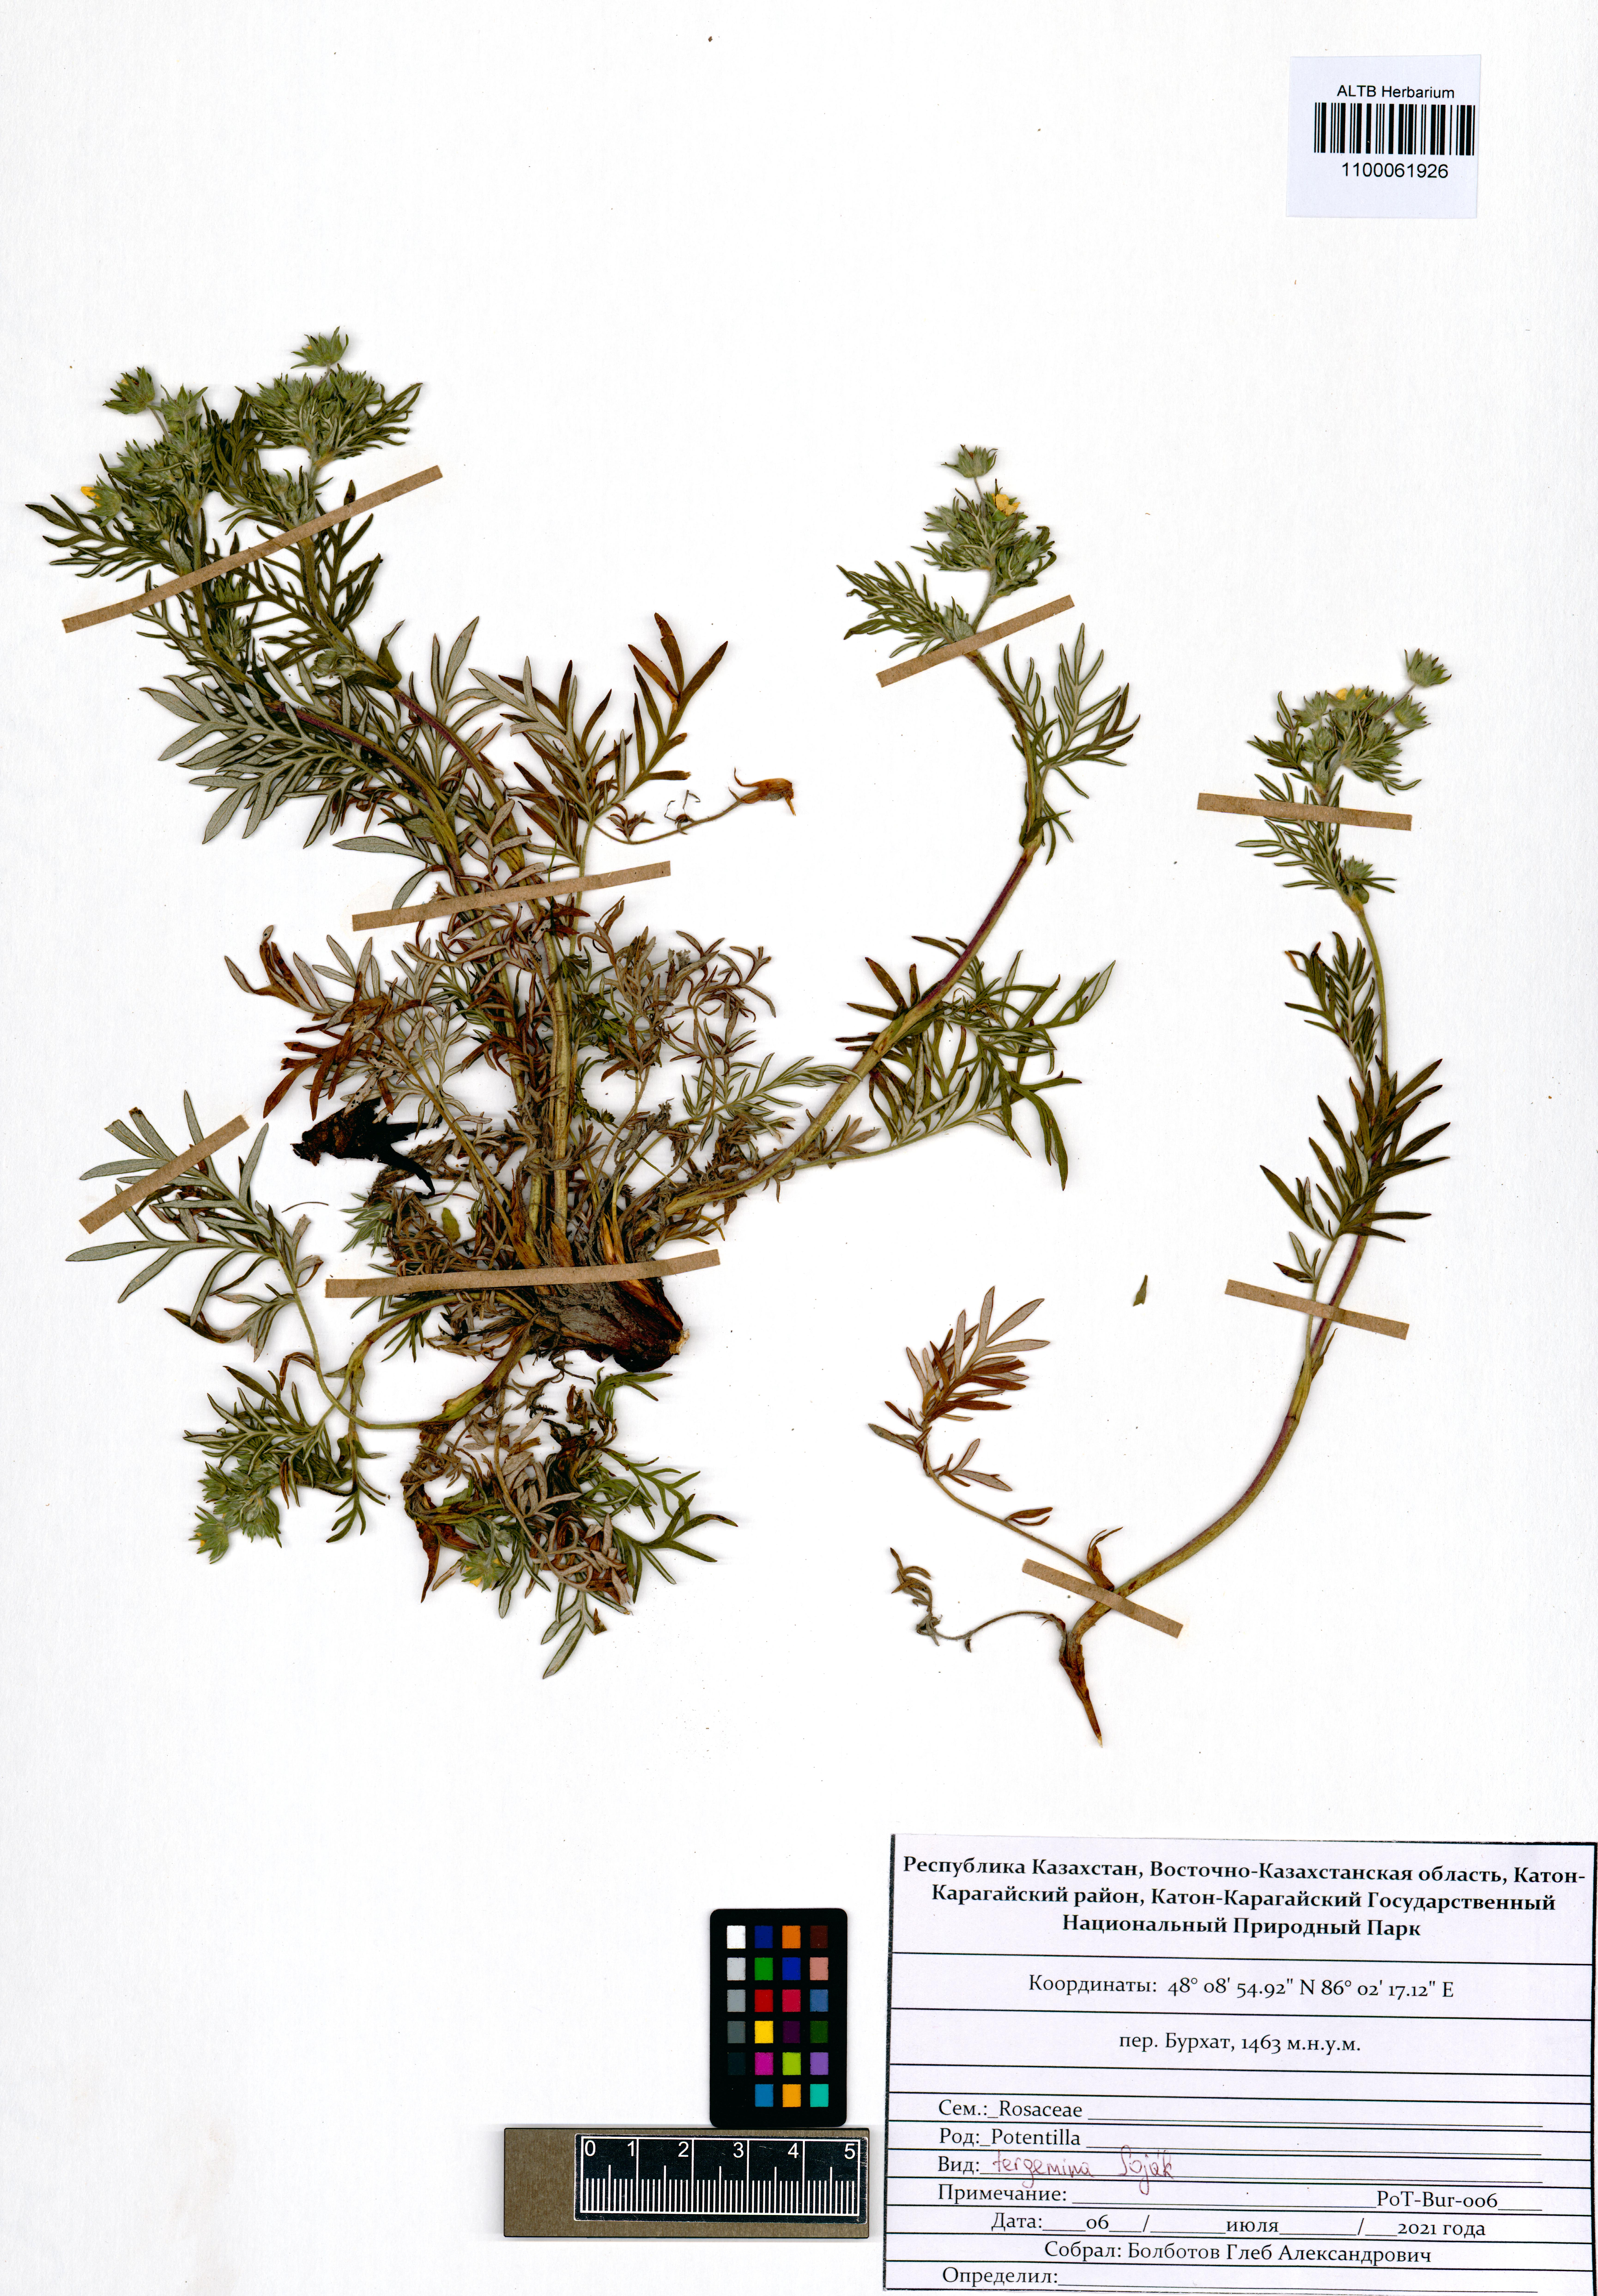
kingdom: Plantae
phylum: Tracheophyta
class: Magnoliopsida
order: Rosales
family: Rosaceae
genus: Potentilla
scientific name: Potentilla tergemina
